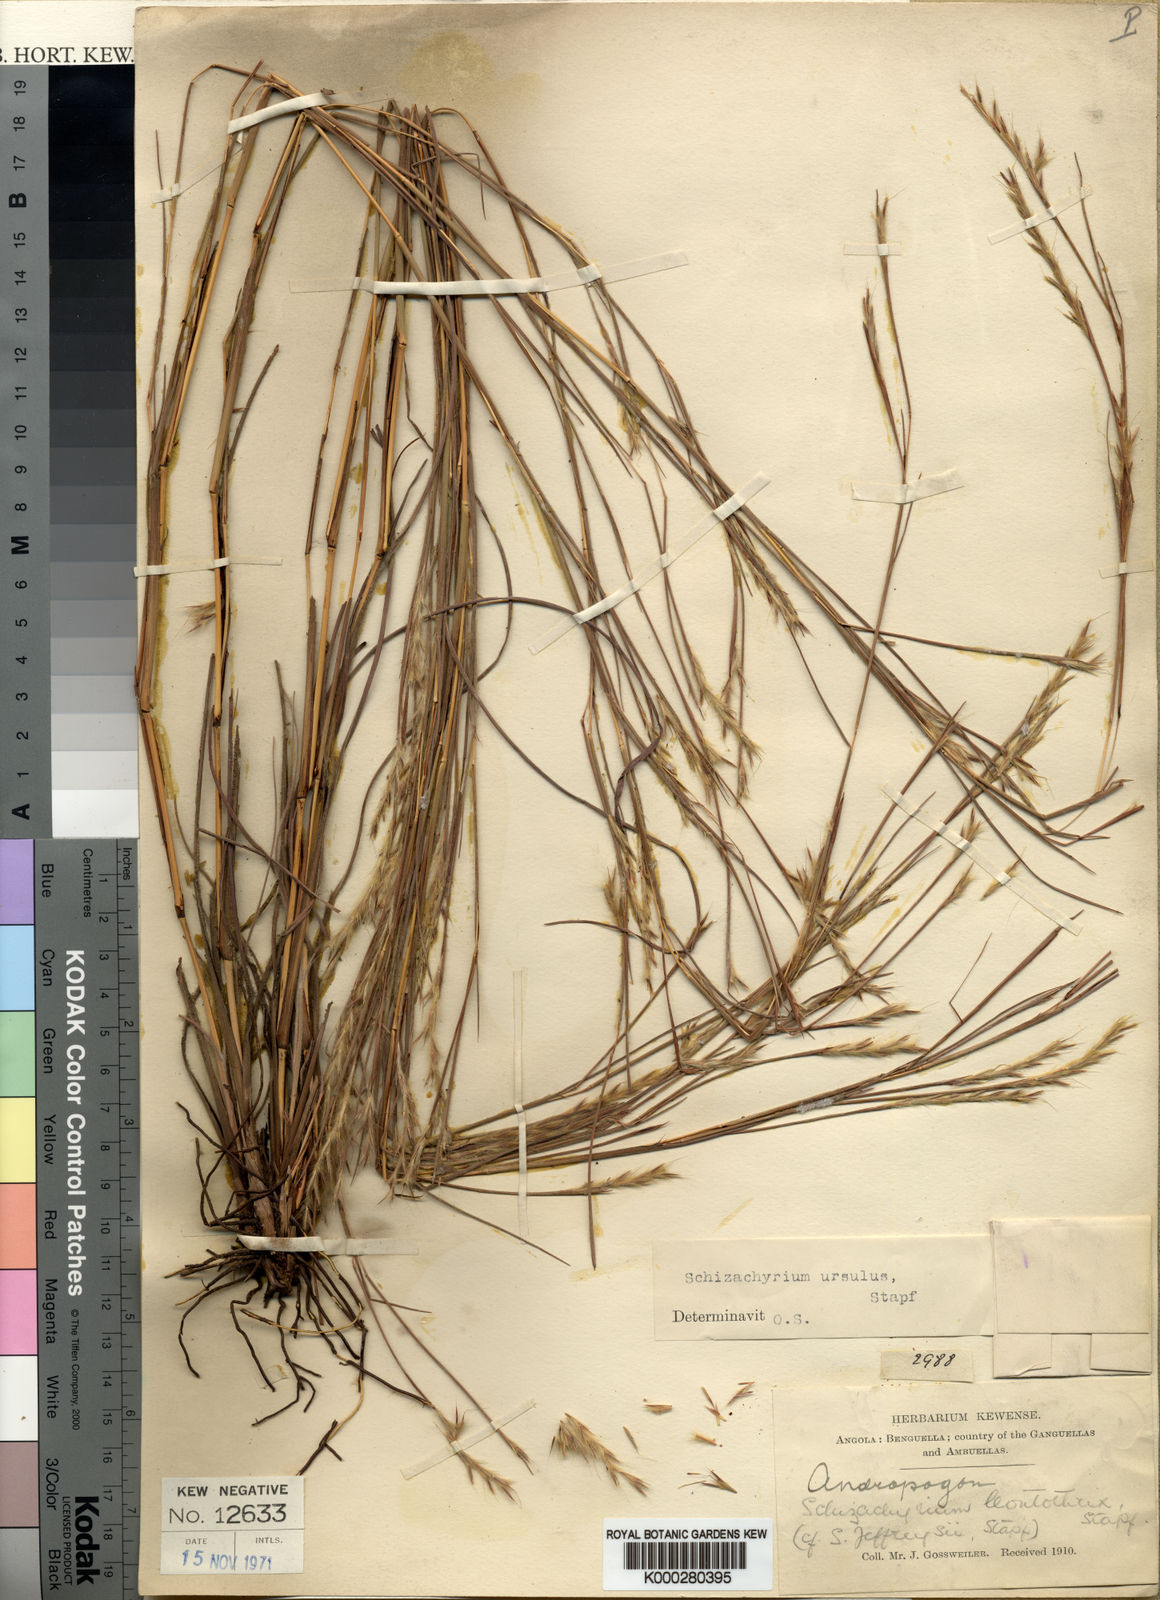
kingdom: Plantae
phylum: Tracheophyta
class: Liliopsida
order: Poales
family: Poaceae
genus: Schizachyrium
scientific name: Schizachyrium jeffreysii
